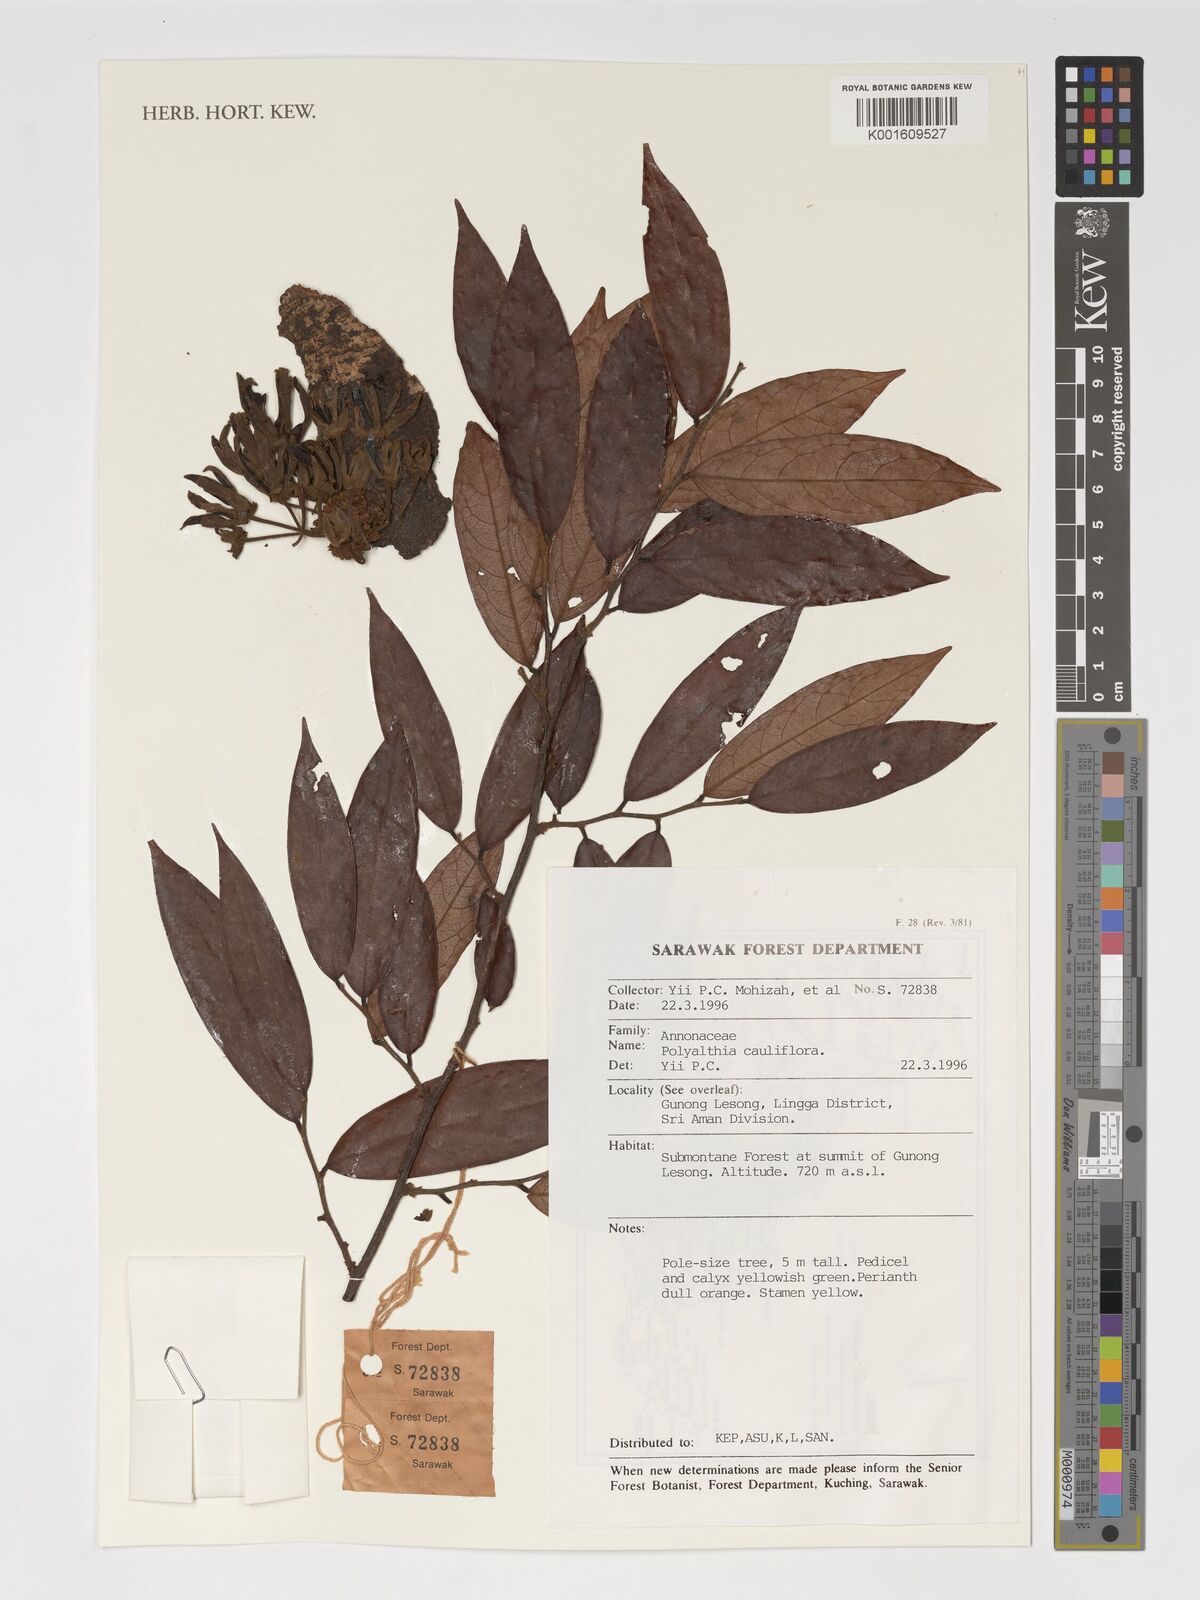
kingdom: Plantae
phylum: Tracheophyta
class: Magnoliopsida
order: Magnoliales
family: Annonaceae
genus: Polyalthia
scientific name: Polyalthia cauliflora
